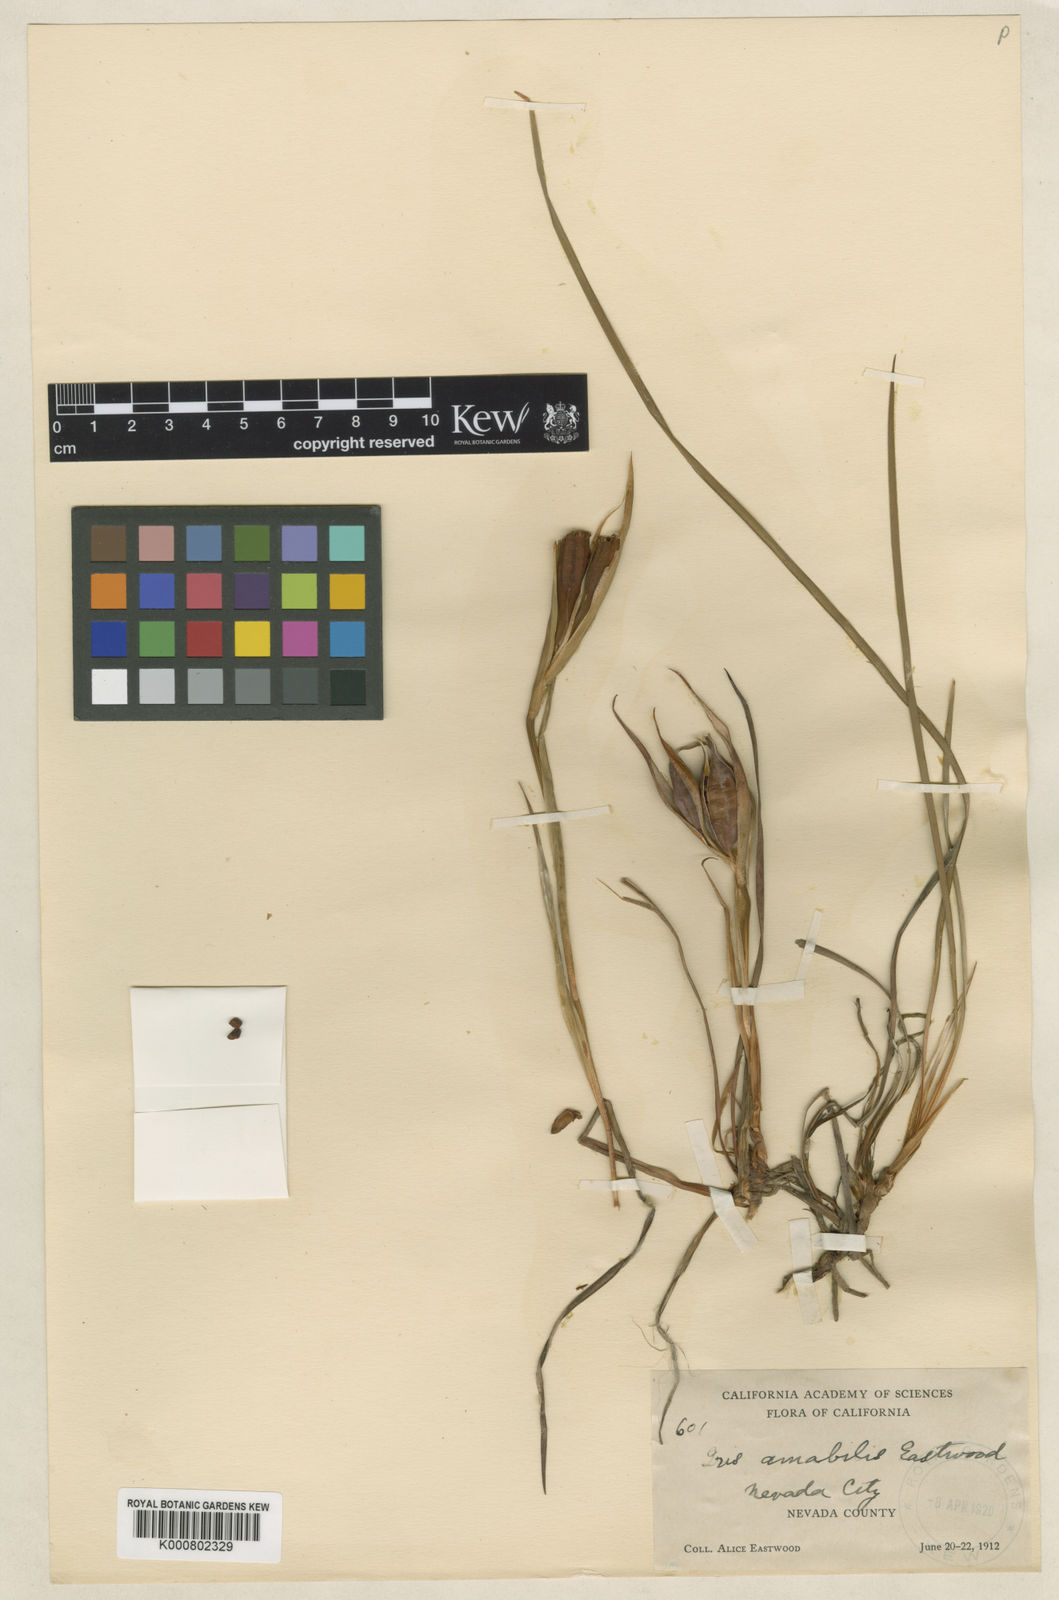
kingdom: Plantae
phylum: Tracheophyta
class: Liliopsida
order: Asparagales
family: Iridaceae
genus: Iris
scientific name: Iris macrosiphon
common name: Ground iris
